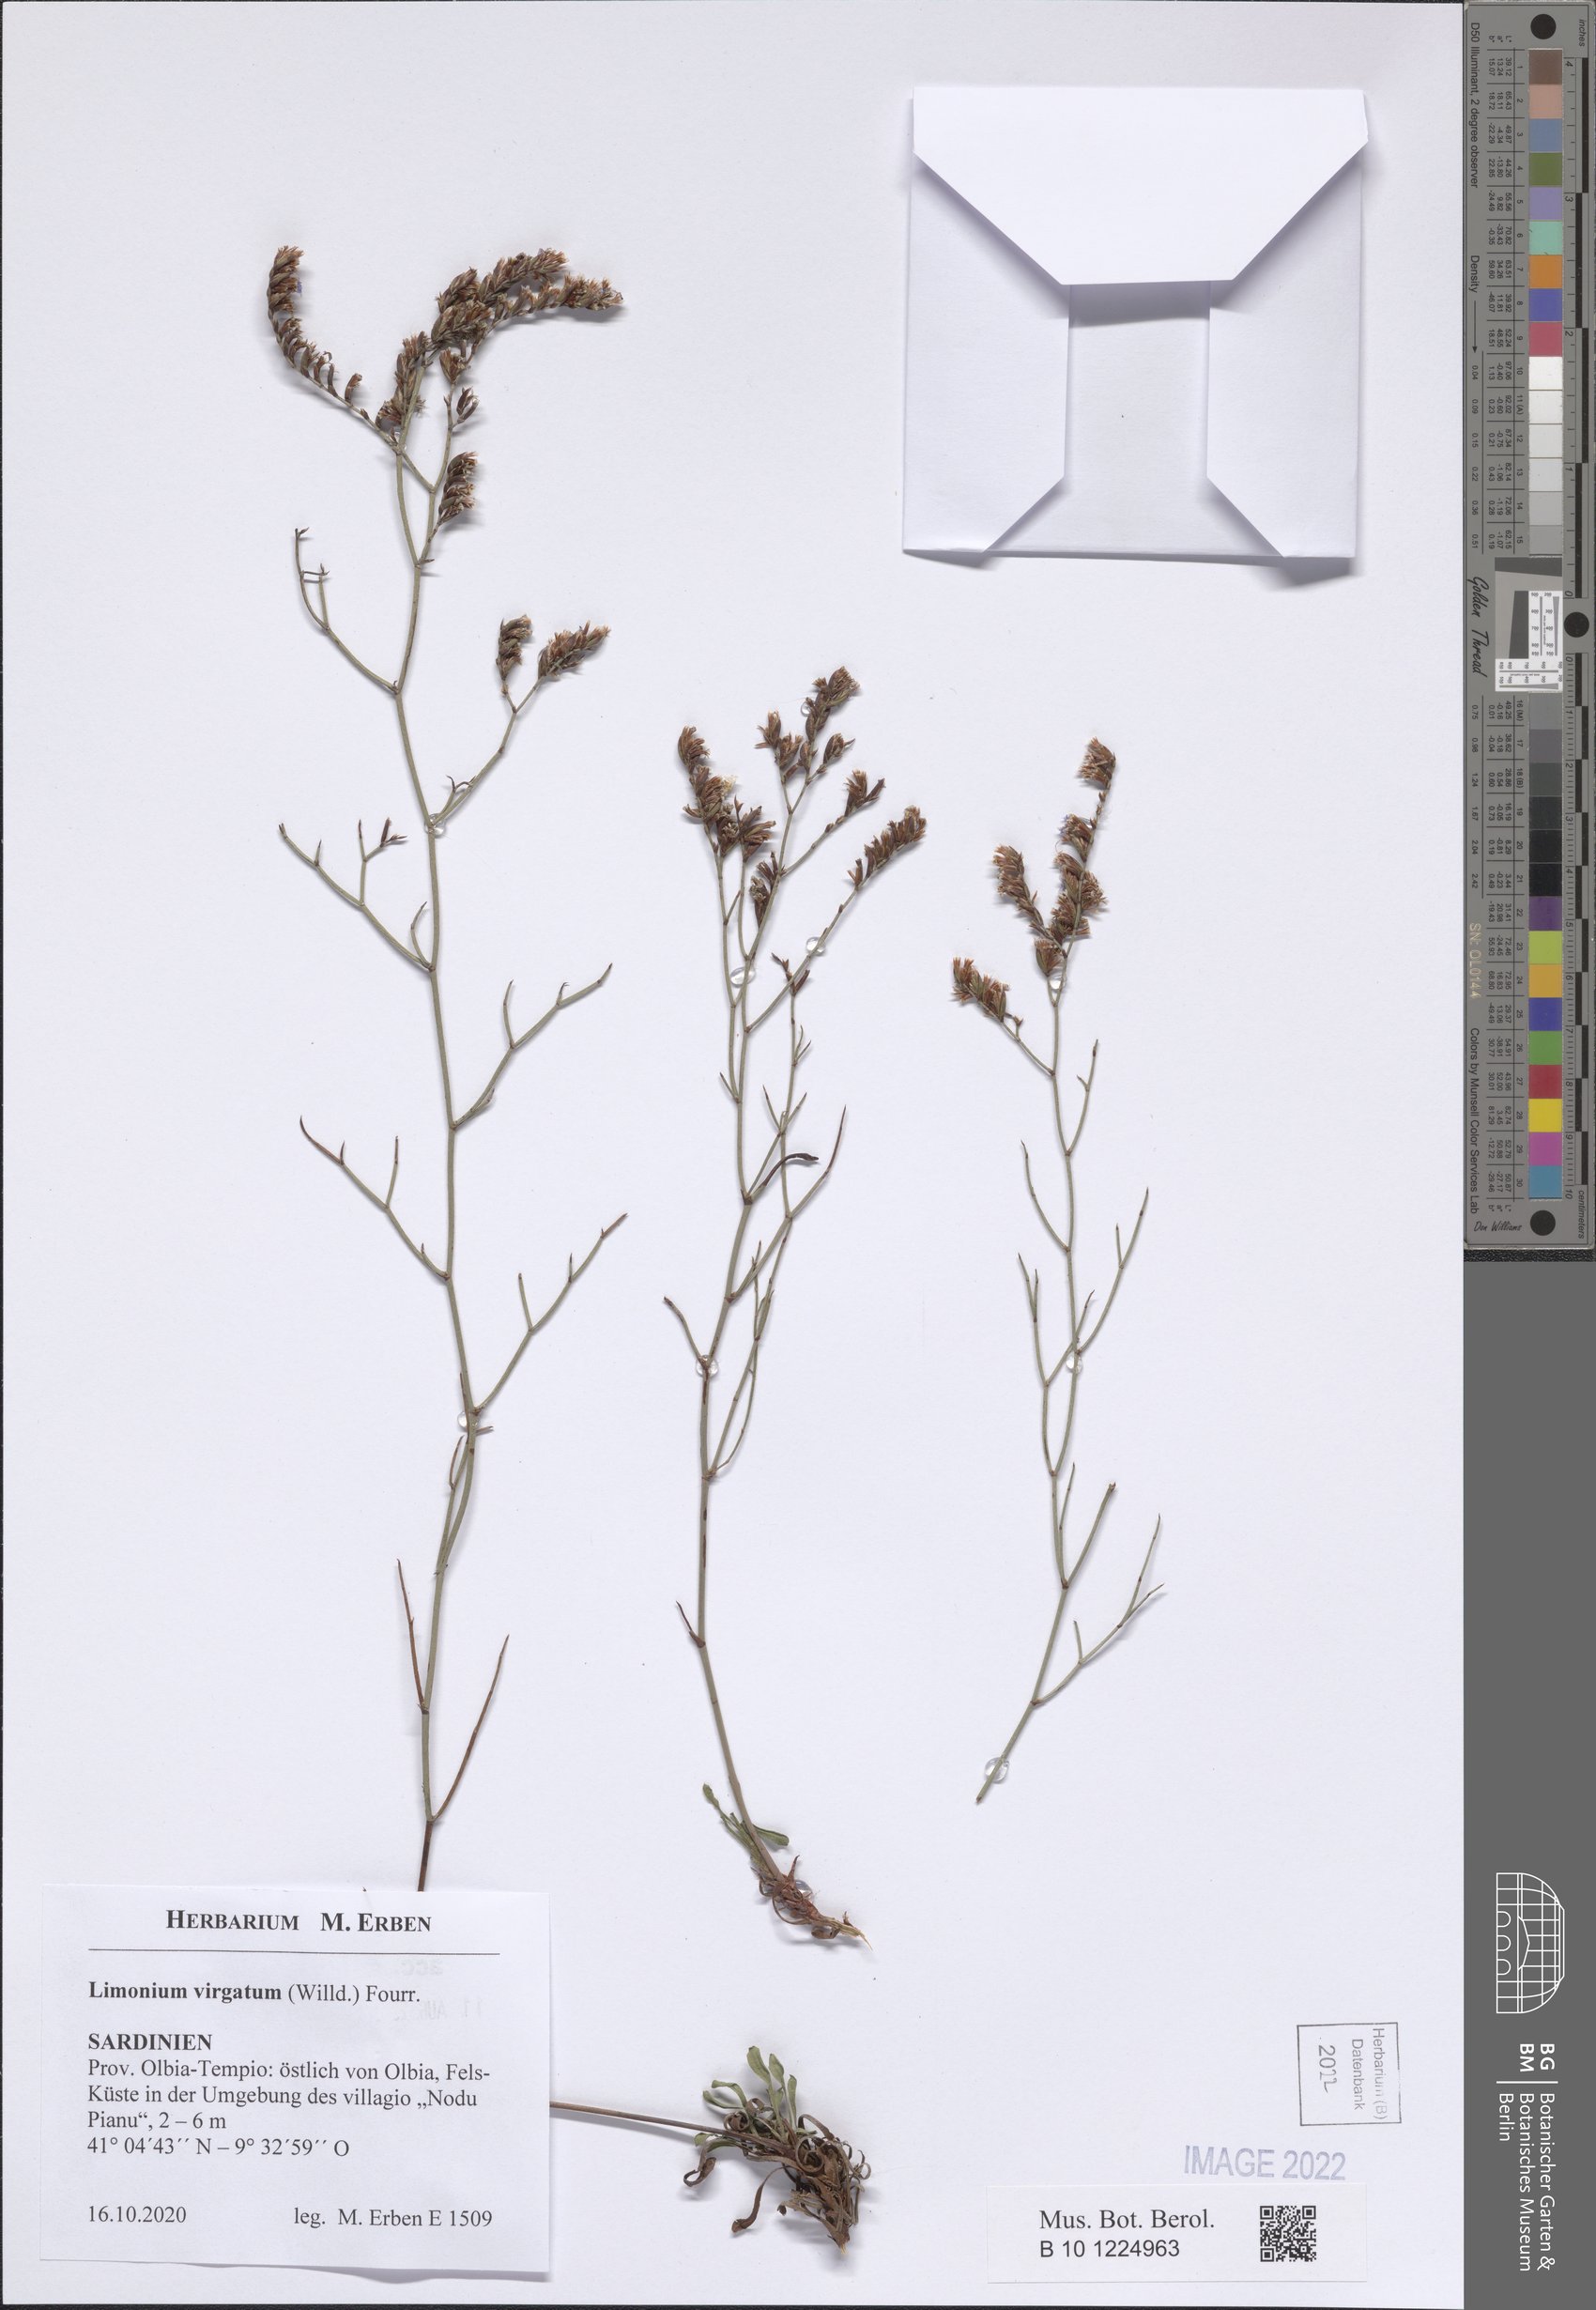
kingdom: Plantae
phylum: Tracheophyta
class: Magnoliopsida
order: Caryophyllales
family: Plumbaginaceae
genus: Limonium
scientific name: Limonium virgatum
